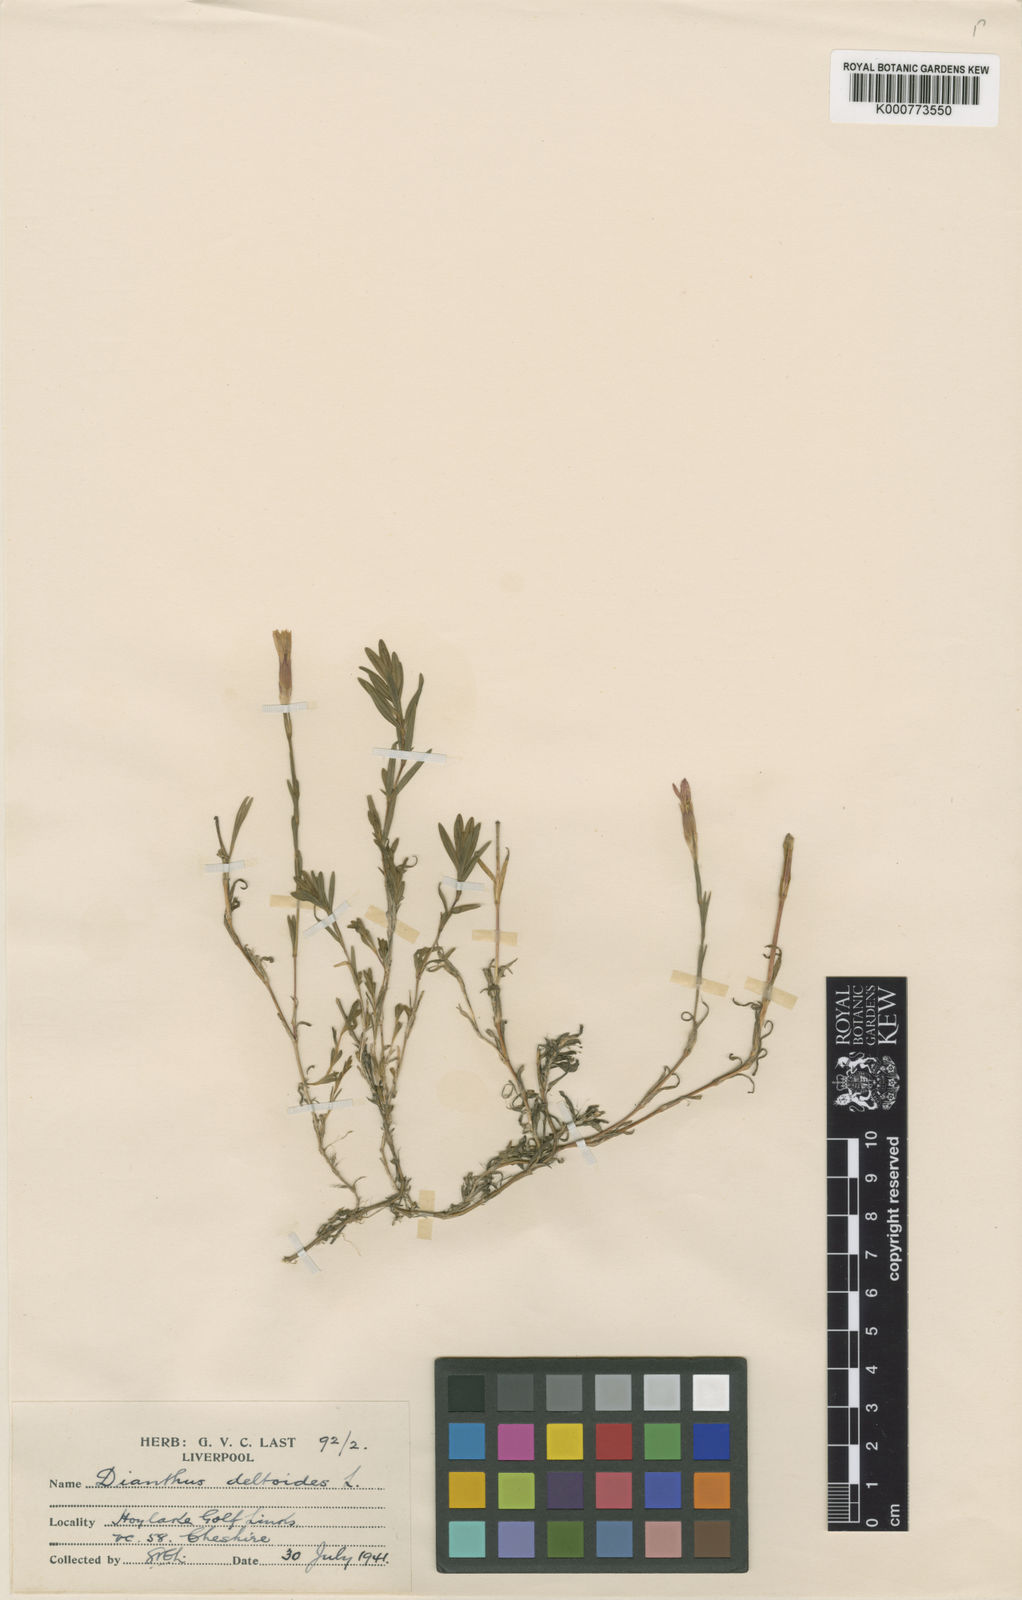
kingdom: Plantae
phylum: Tracheophyta
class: Magnoliopsida
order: Caryophyllales
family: Caryophyllaceae
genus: Dianthus
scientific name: Dianthus deltoides
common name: Maiden pink
